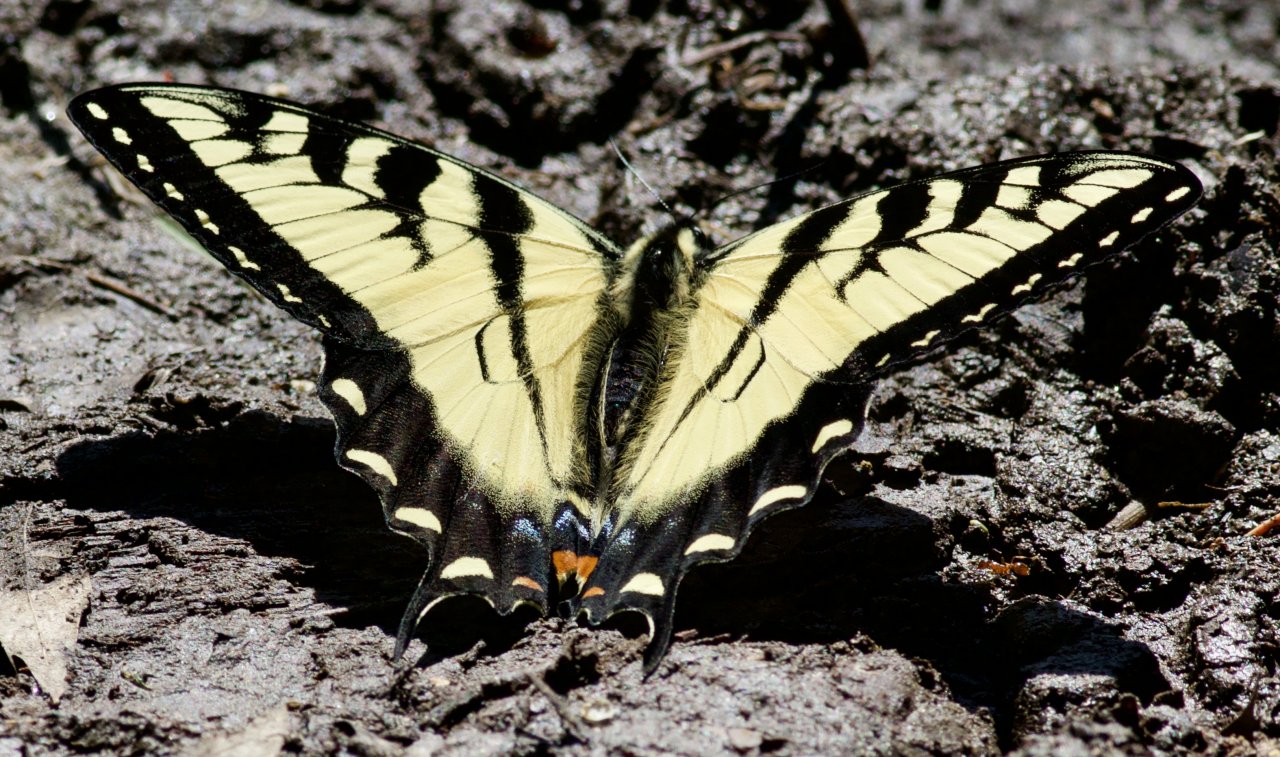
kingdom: Animalia
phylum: Arthropoda
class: Insecta
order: Lepidoptera
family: Papilionidae
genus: Pterourus
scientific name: Pterourus glaucus
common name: Eastern Tiger Swallowtail
